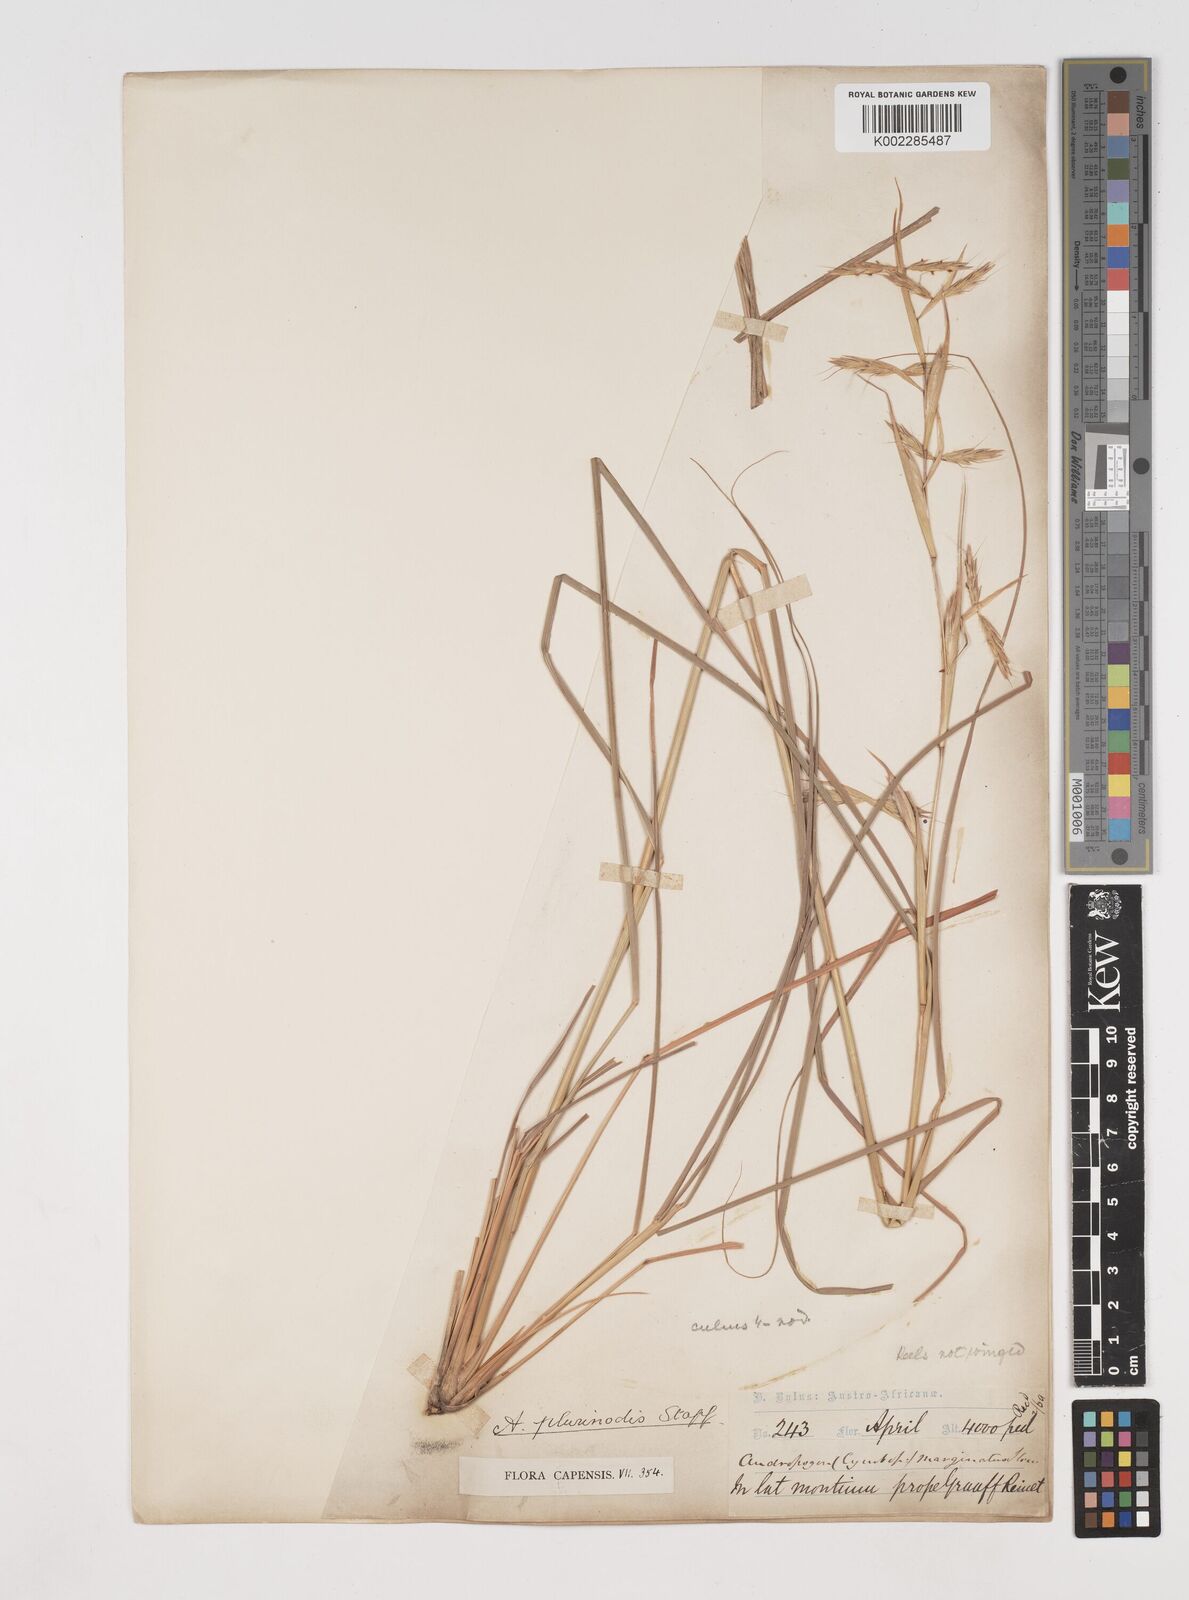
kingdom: Plantae
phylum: Tracheophyta
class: Liliopsida
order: Poales
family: Poaceae
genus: Cymbopogon
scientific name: Cymbopogon pospischilii
